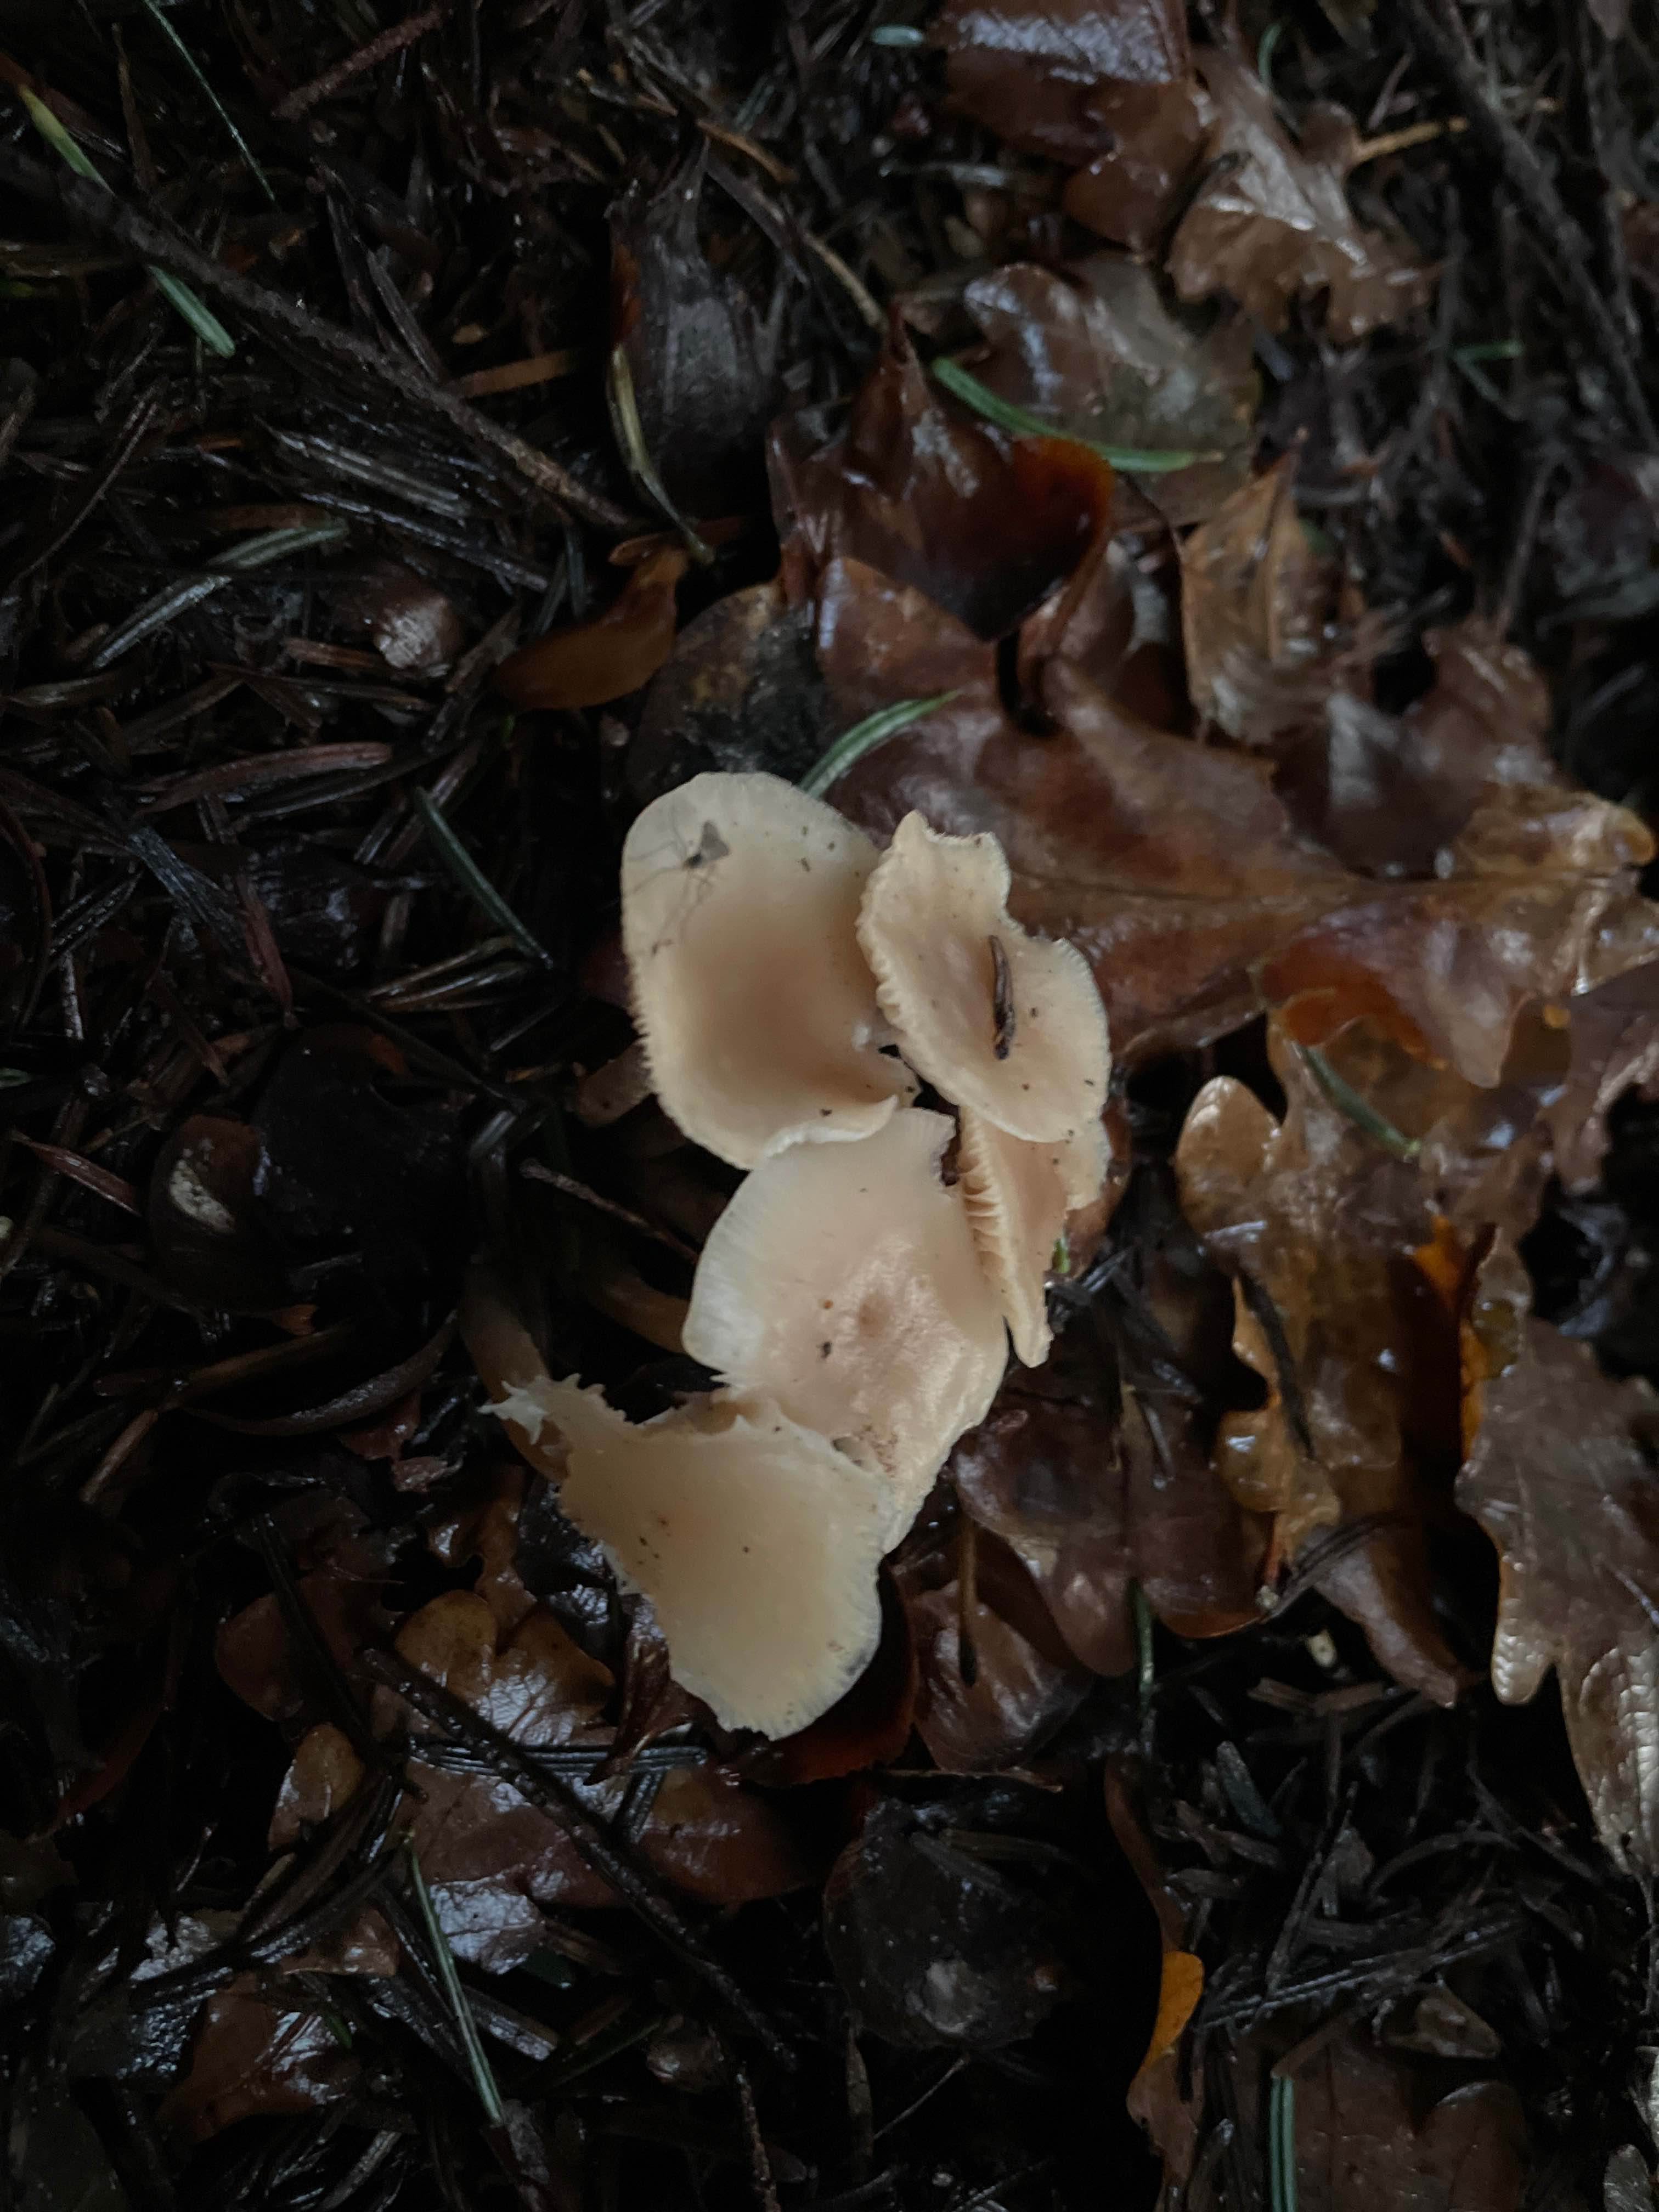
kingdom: Fungi
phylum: Basidiomycota
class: Agaricomycetes
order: Agaricales
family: Omphalotaceae
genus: Collybiopsis
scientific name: Collybiopsis confluens
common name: knippe-fladhat
